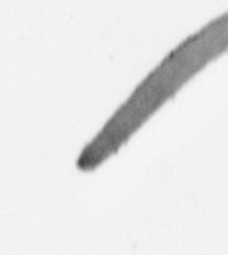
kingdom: Chromista
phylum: Ochrophyta
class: Bacillariophyceae
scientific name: Bacillariophyceae
